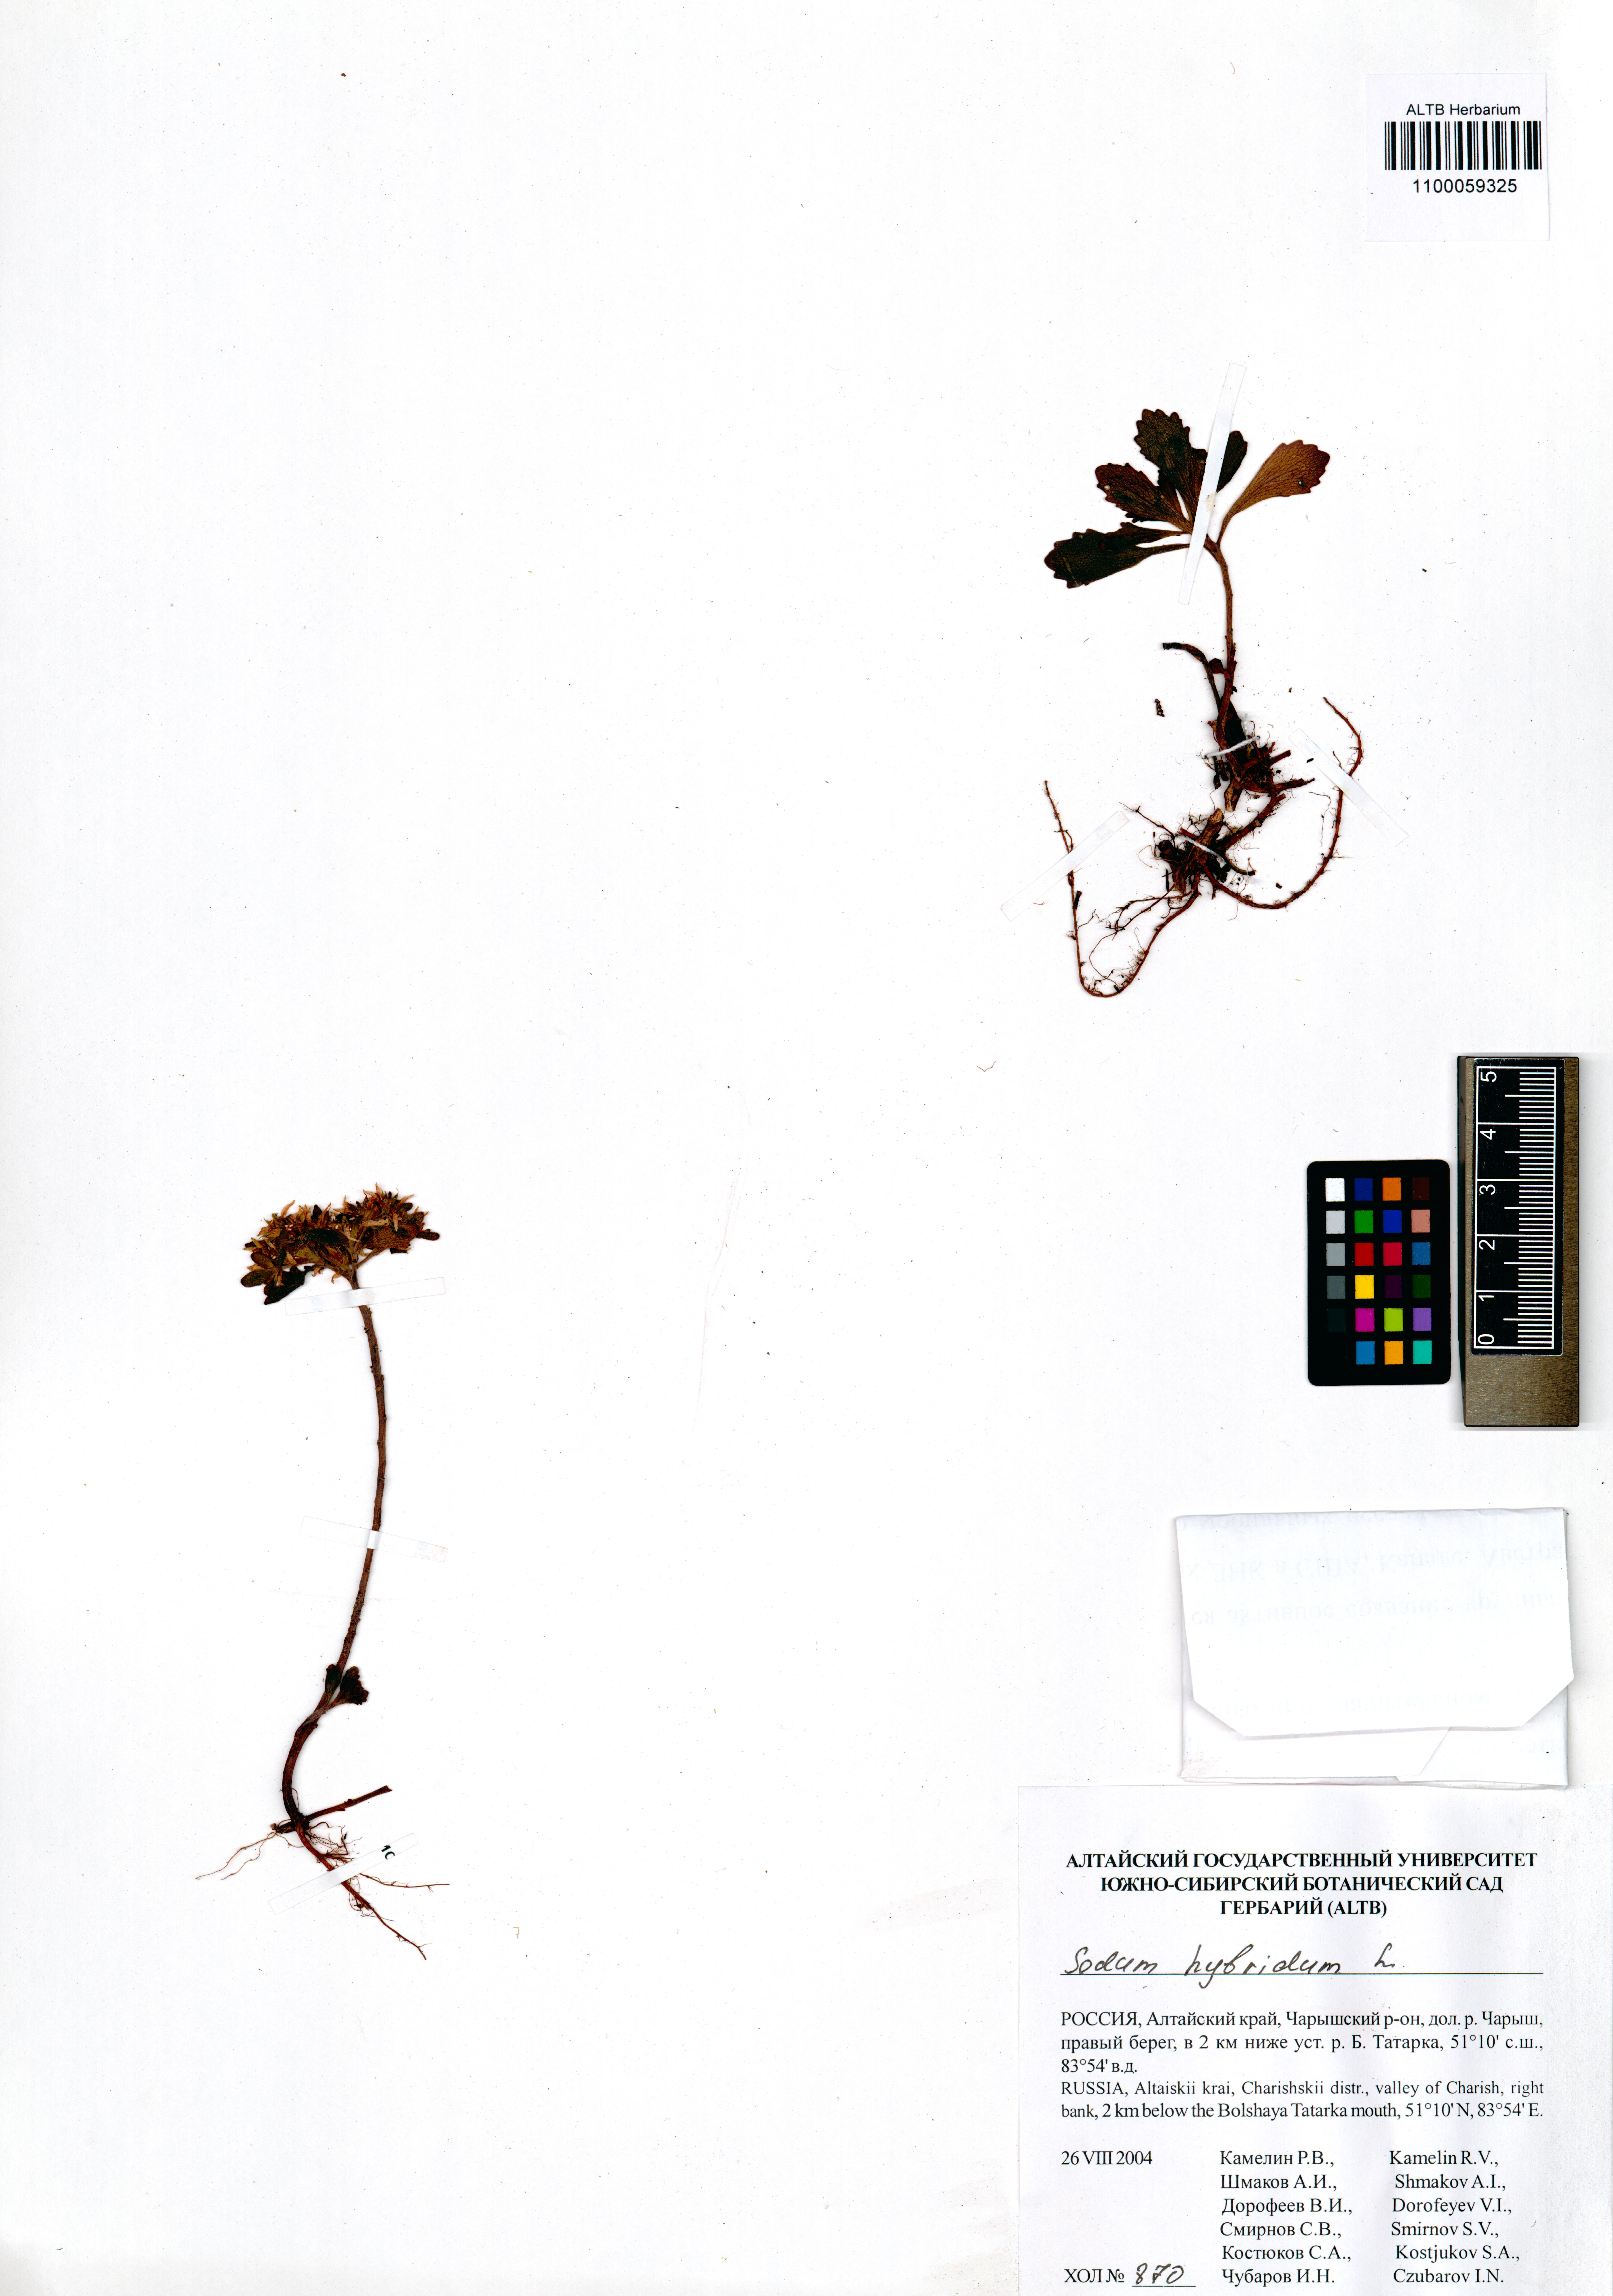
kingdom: Plantae
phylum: Tracheophyta
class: Magnoliopsida
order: Saxifragales
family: Crassulaceae
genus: Phedimus
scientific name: Phedimus hybridus
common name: Hybrid stonecrop
